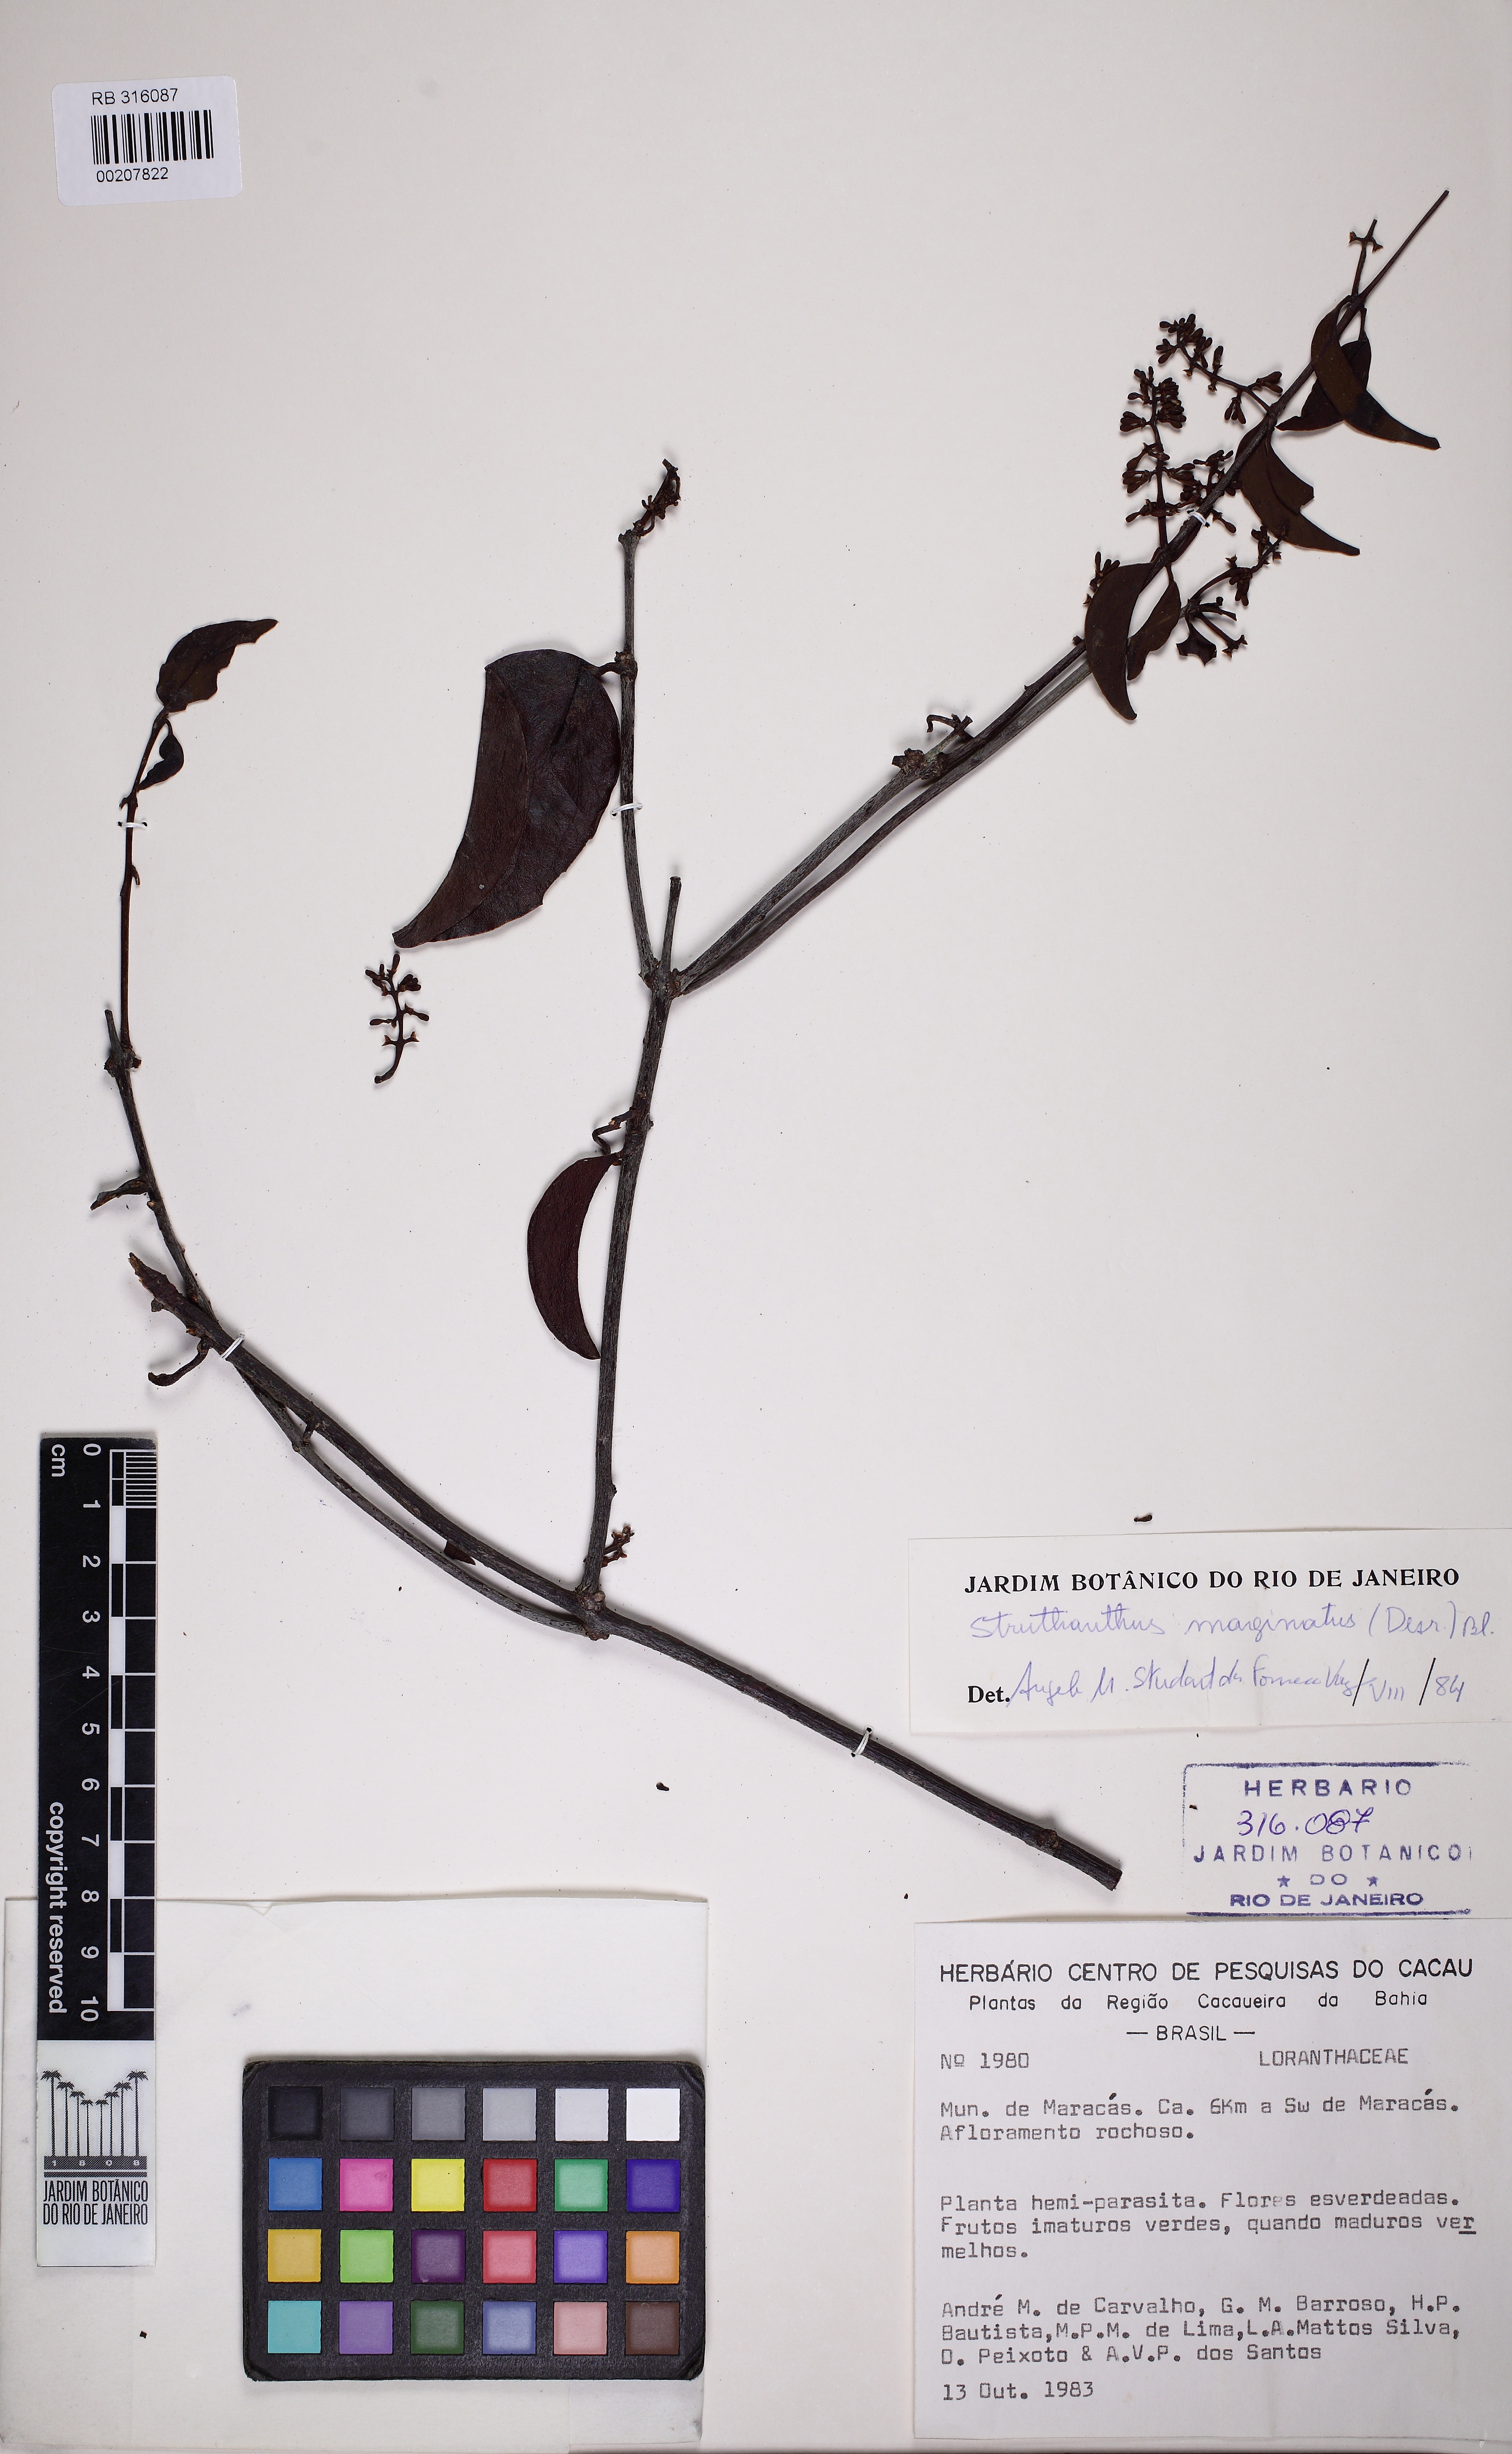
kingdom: Plantae
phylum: Tracheophyta
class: Magnoliopsida
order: Santalales
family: Loranthaceae
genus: Struthanthus
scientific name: Struthanthus marginatus
